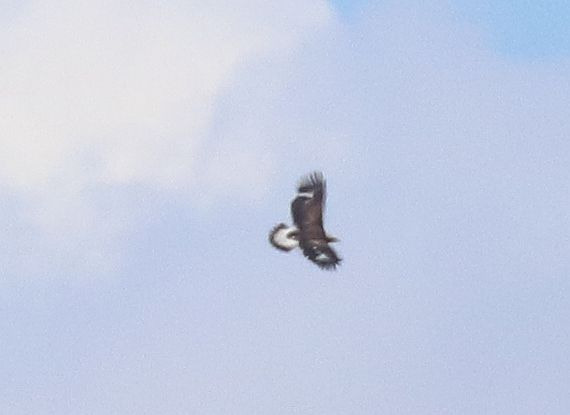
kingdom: Animalia
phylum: Chordata
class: Aves
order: Accipitriformes
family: Accipitridae
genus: Aquila
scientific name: Aquila chrysaetos
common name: Kongeørn
